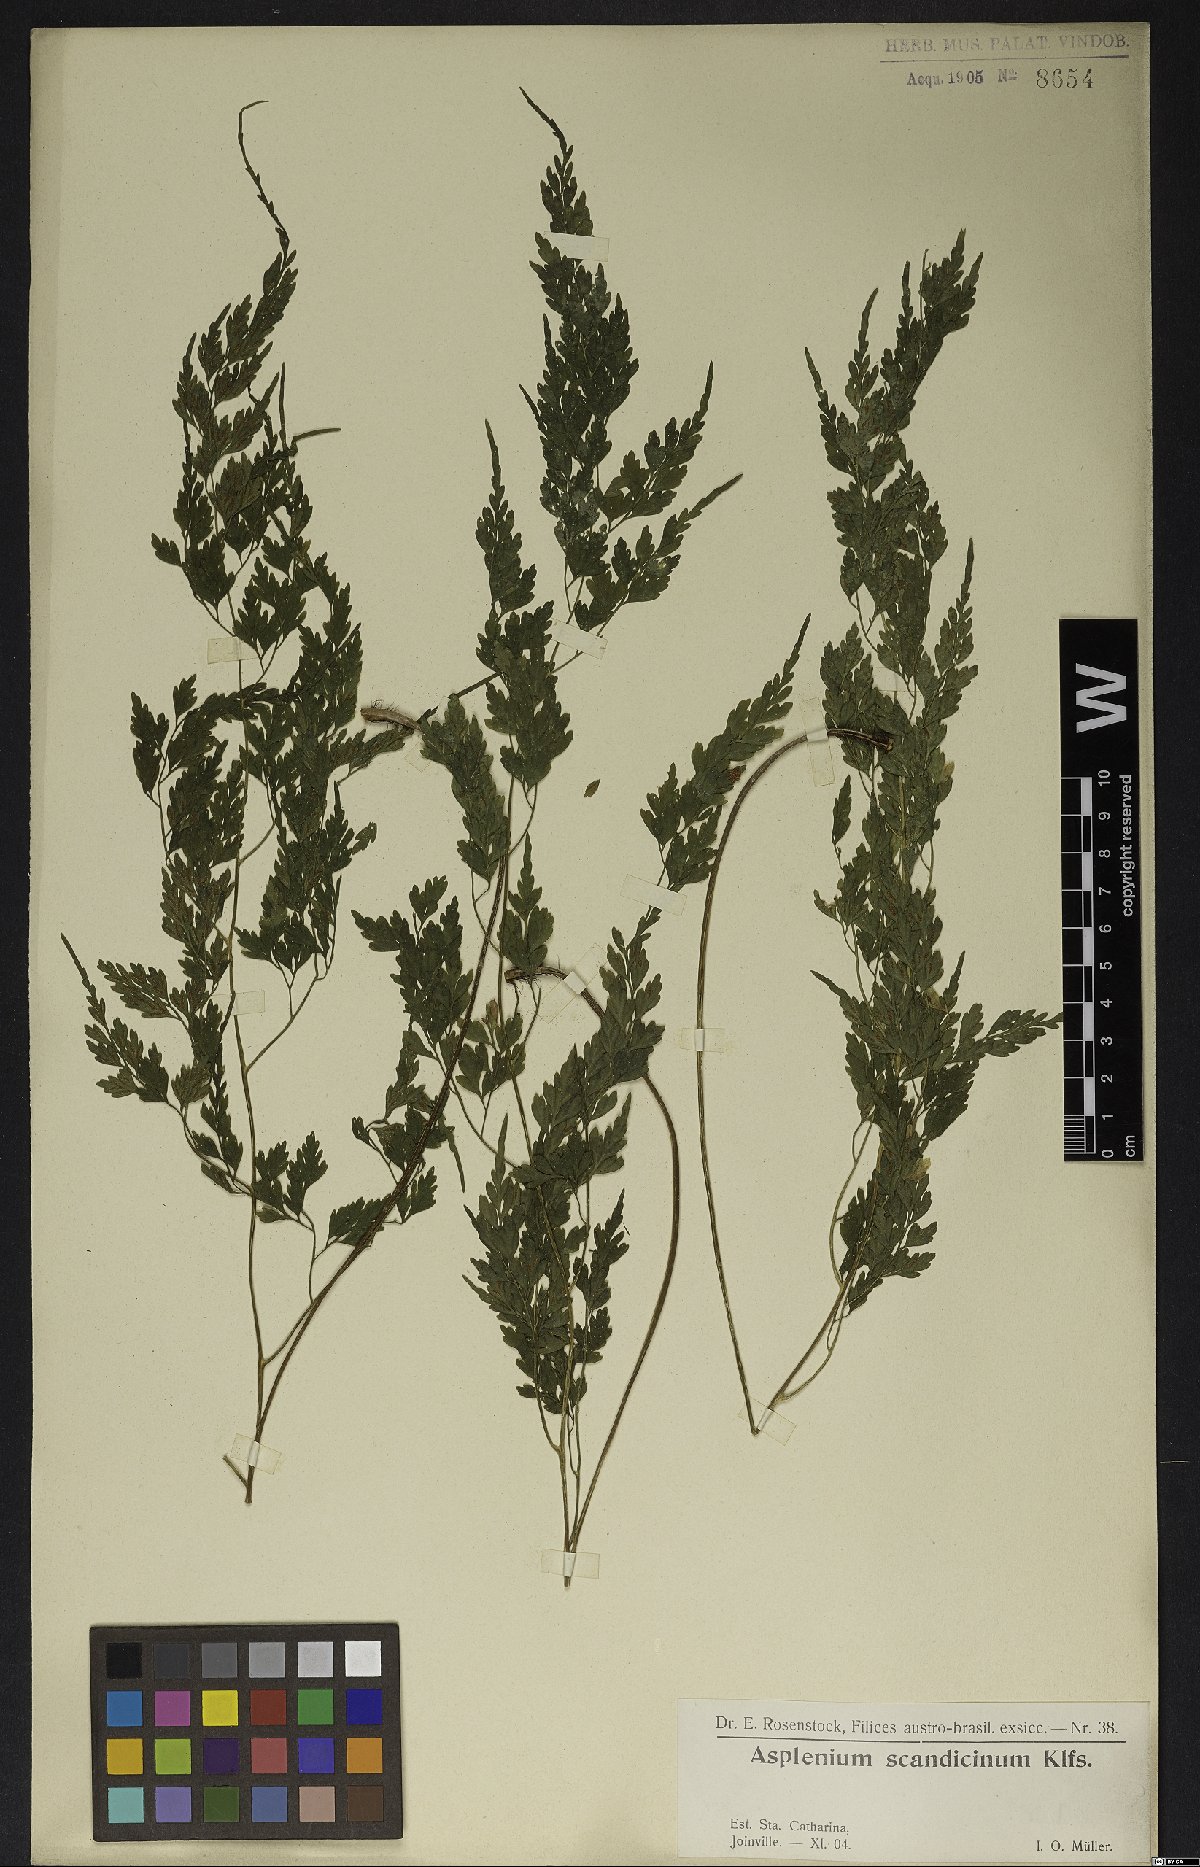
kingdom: Plantae
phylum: Tracheophyta
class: Polypodiopsida
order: Polypodiales
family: Aspleniaceae
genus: Asplenium
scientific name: Asplenium scandicinum
